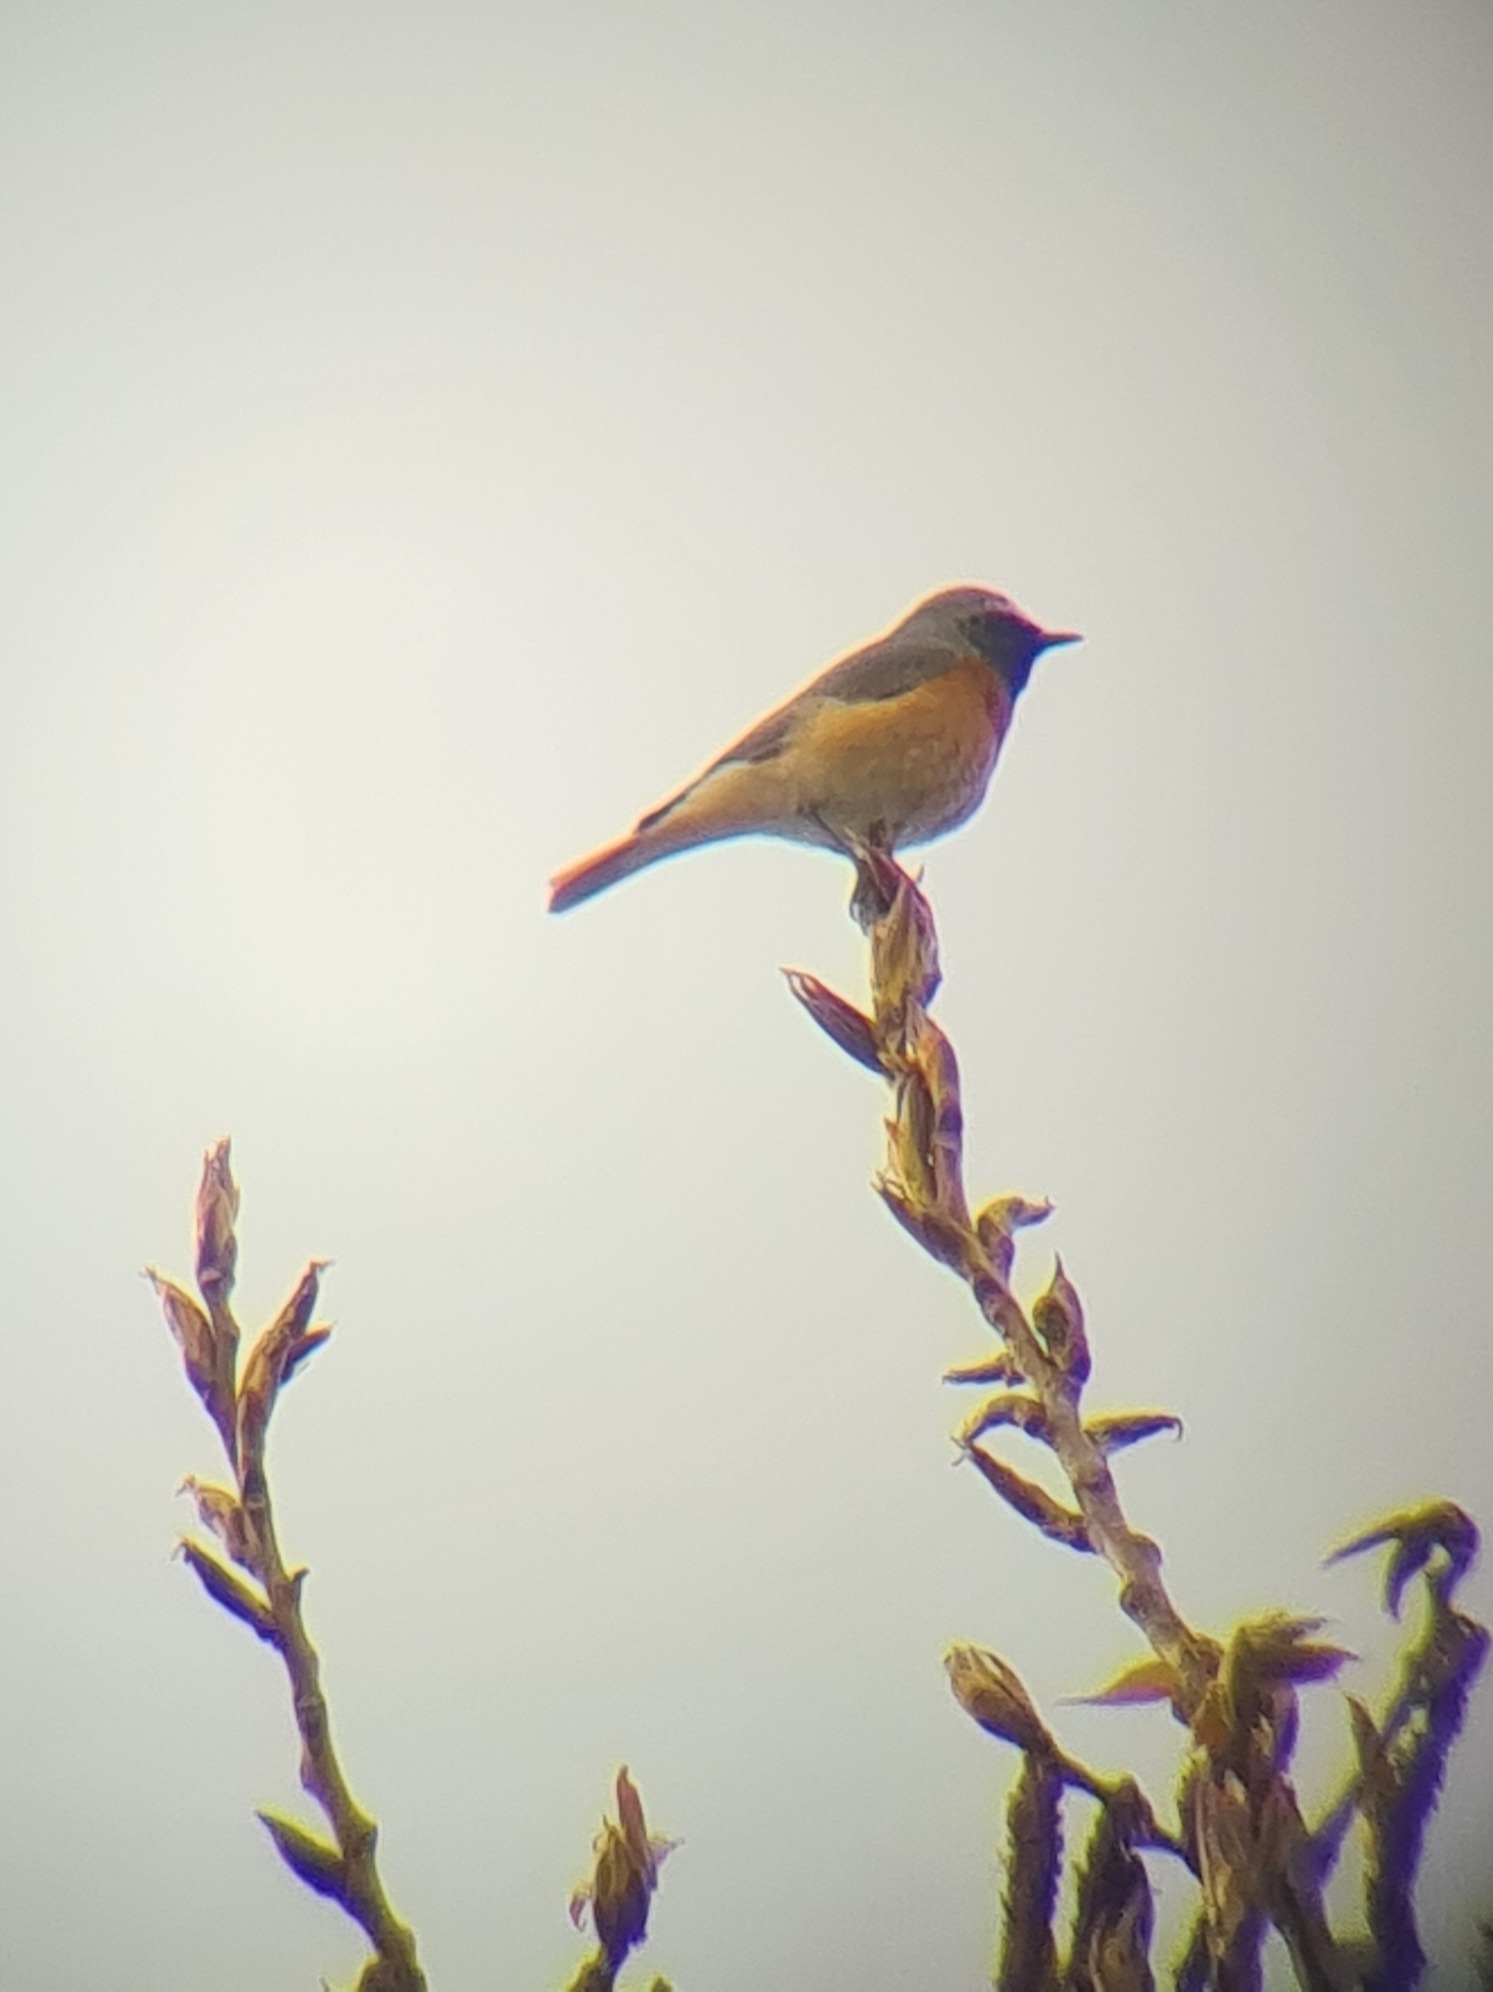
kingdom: Animalia
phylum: Chordata
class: Aves
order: Passeriformes
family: Muscicapidae
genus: Phoenicurus
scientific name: Phoenicurus phoenicurus
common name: Rødstjert
